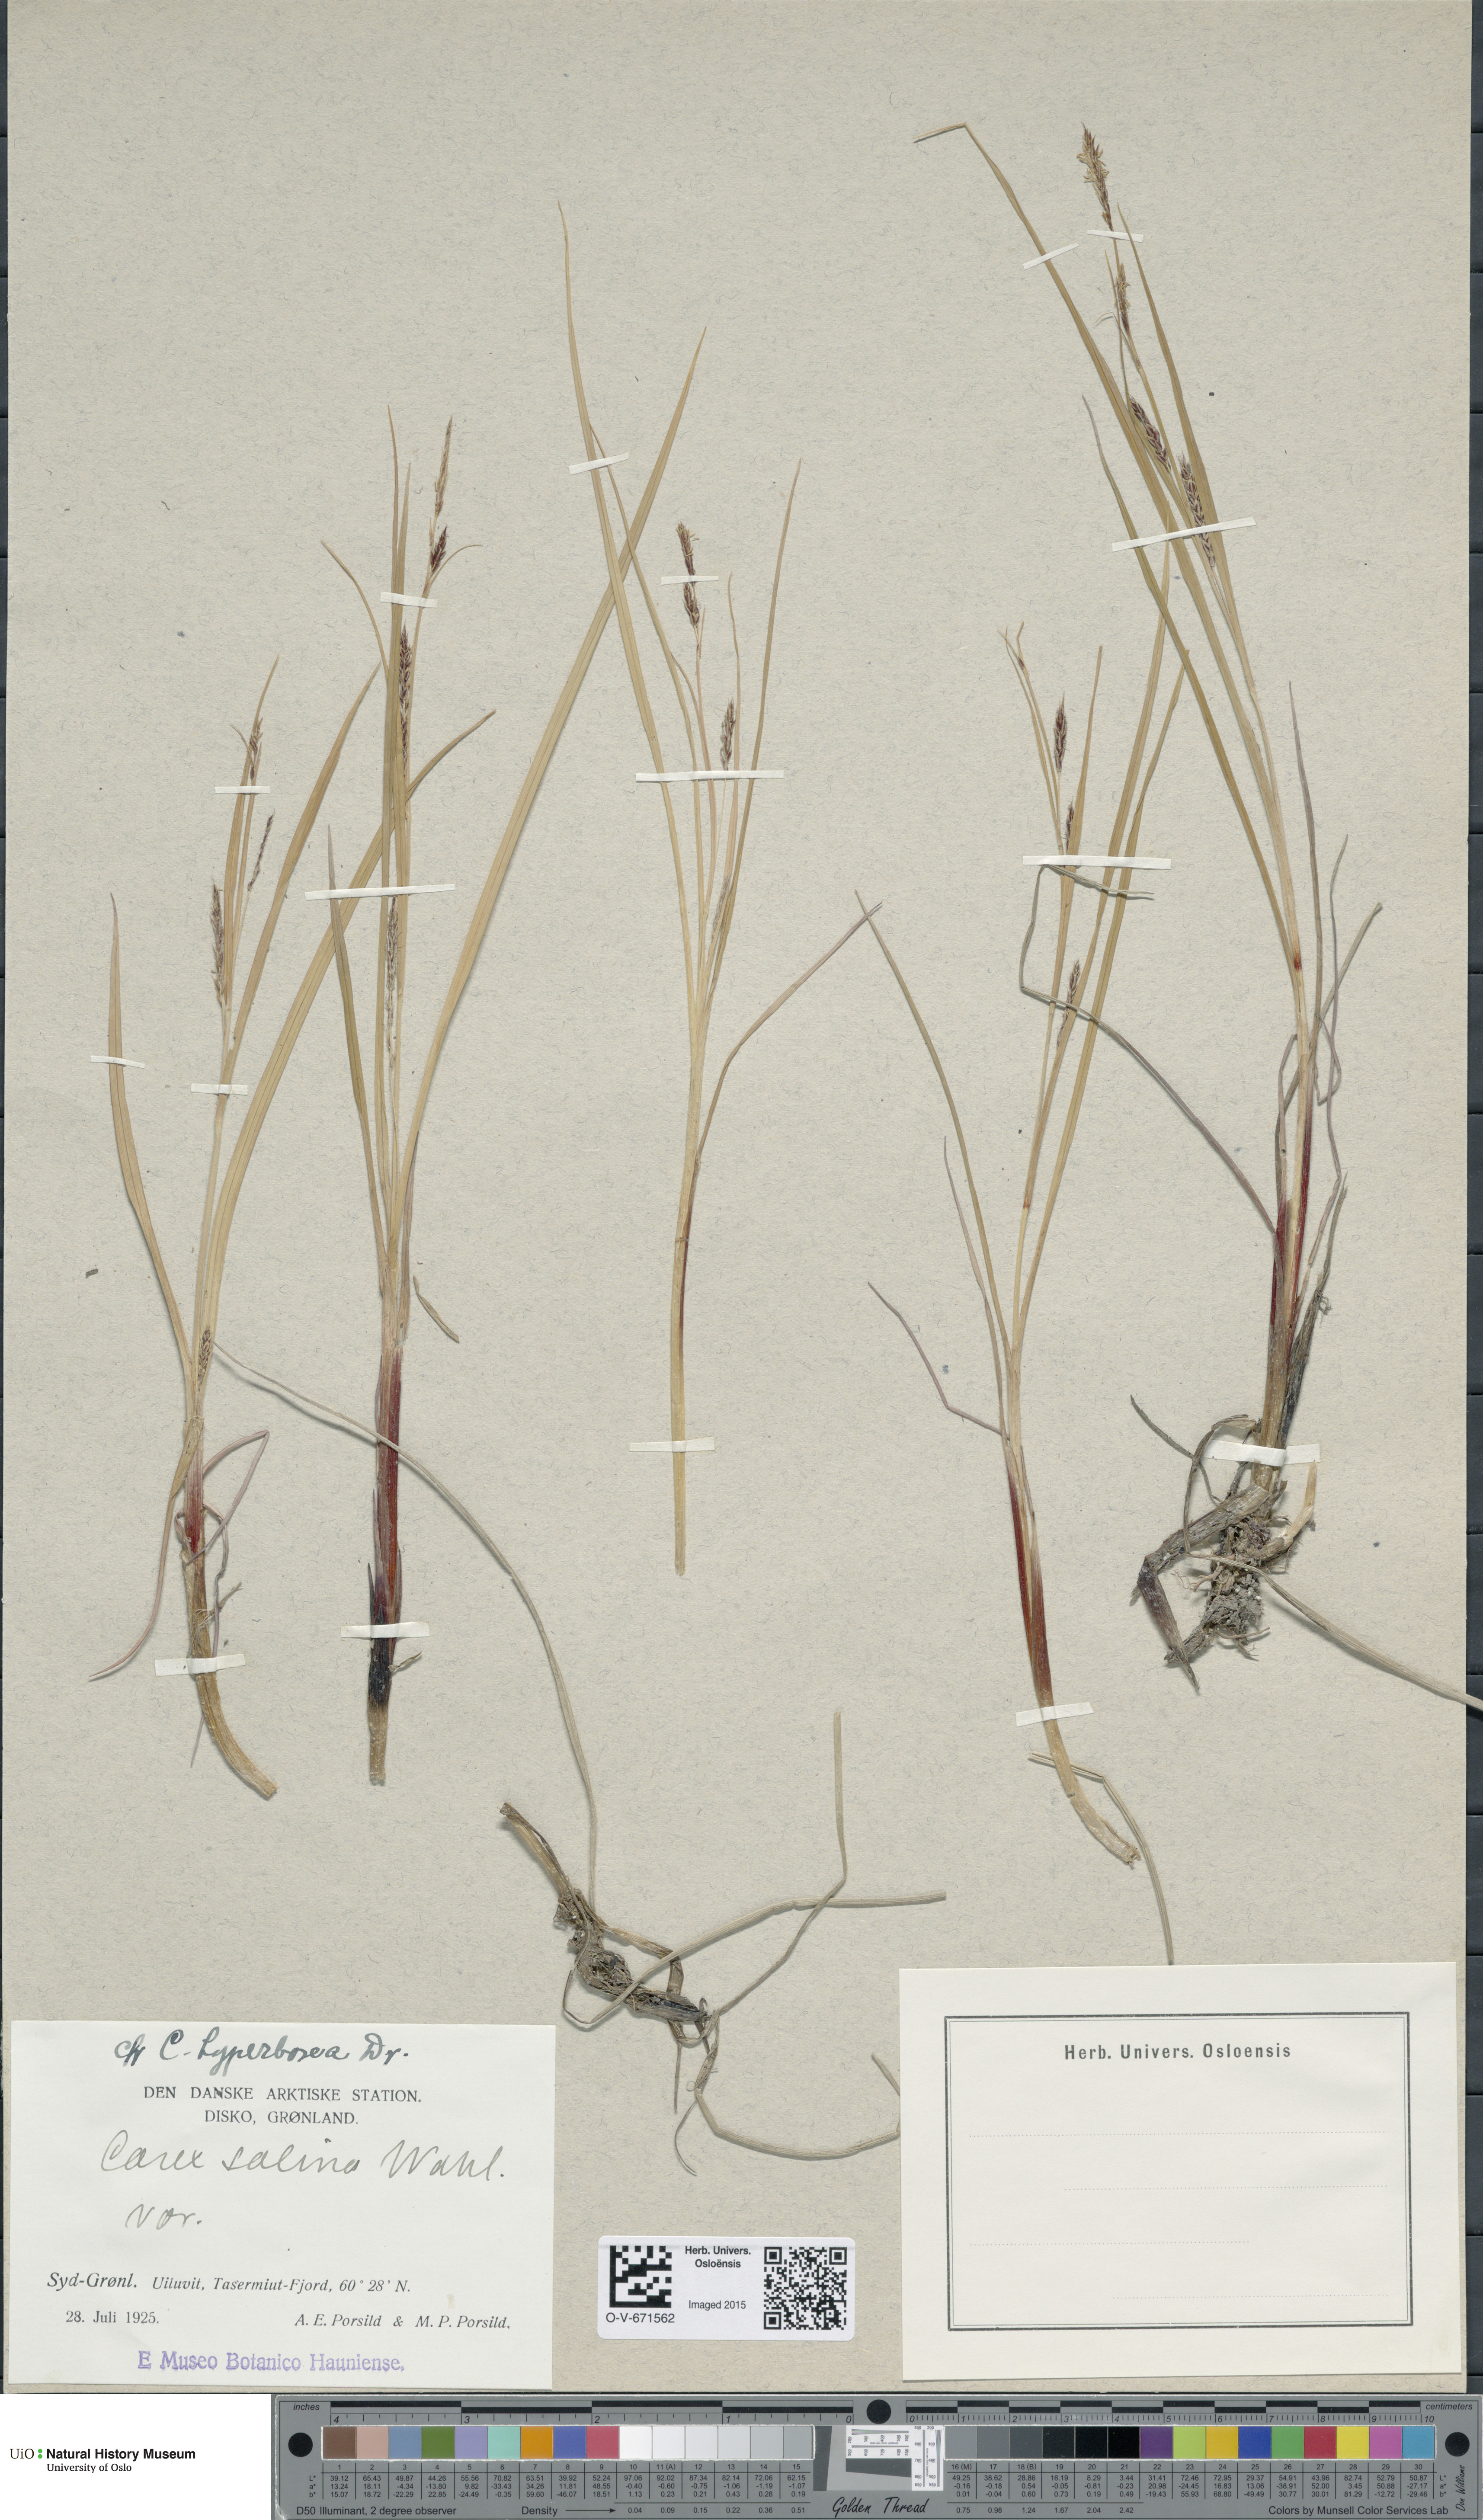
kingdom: Plantae
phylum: Tracheophyta
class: Liliopsida
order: Poales
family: Cyperaceae
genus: Carex
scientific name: Carex salina
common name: Saltmarsh sedge
